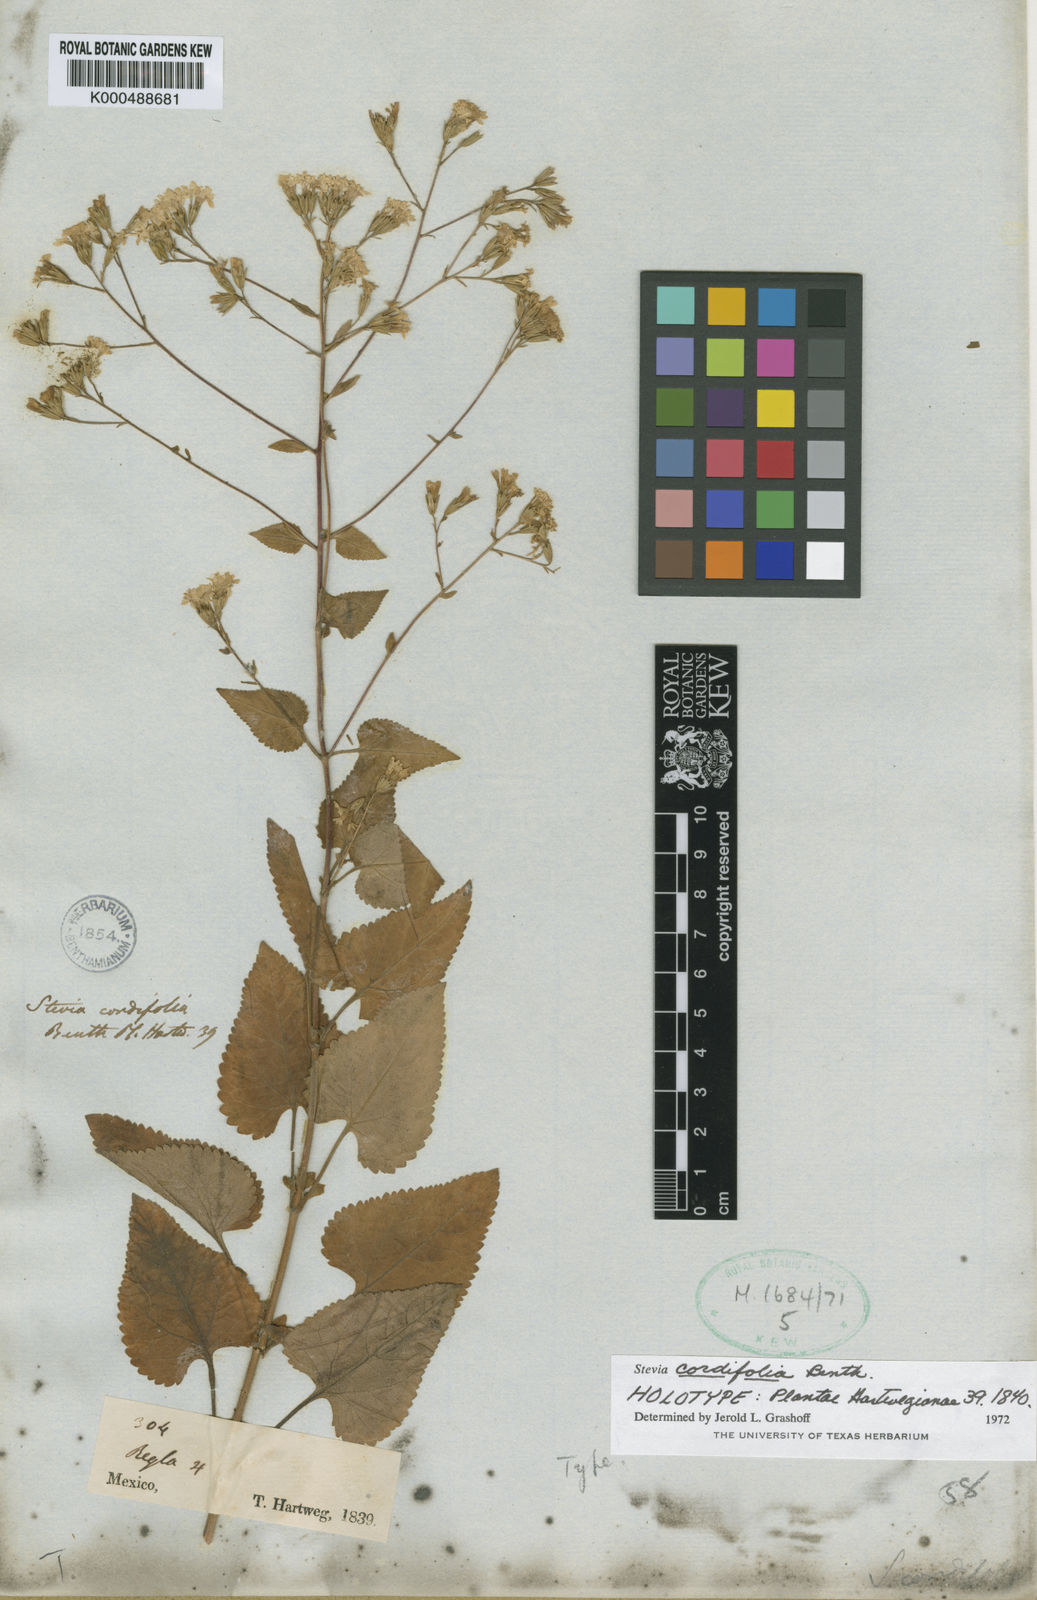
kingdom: Plantae
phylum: Tracheophyta
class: Magnoliopsida
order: Asterales
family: Asteraceae
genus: Stevia
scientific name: Stevia cordifolia
